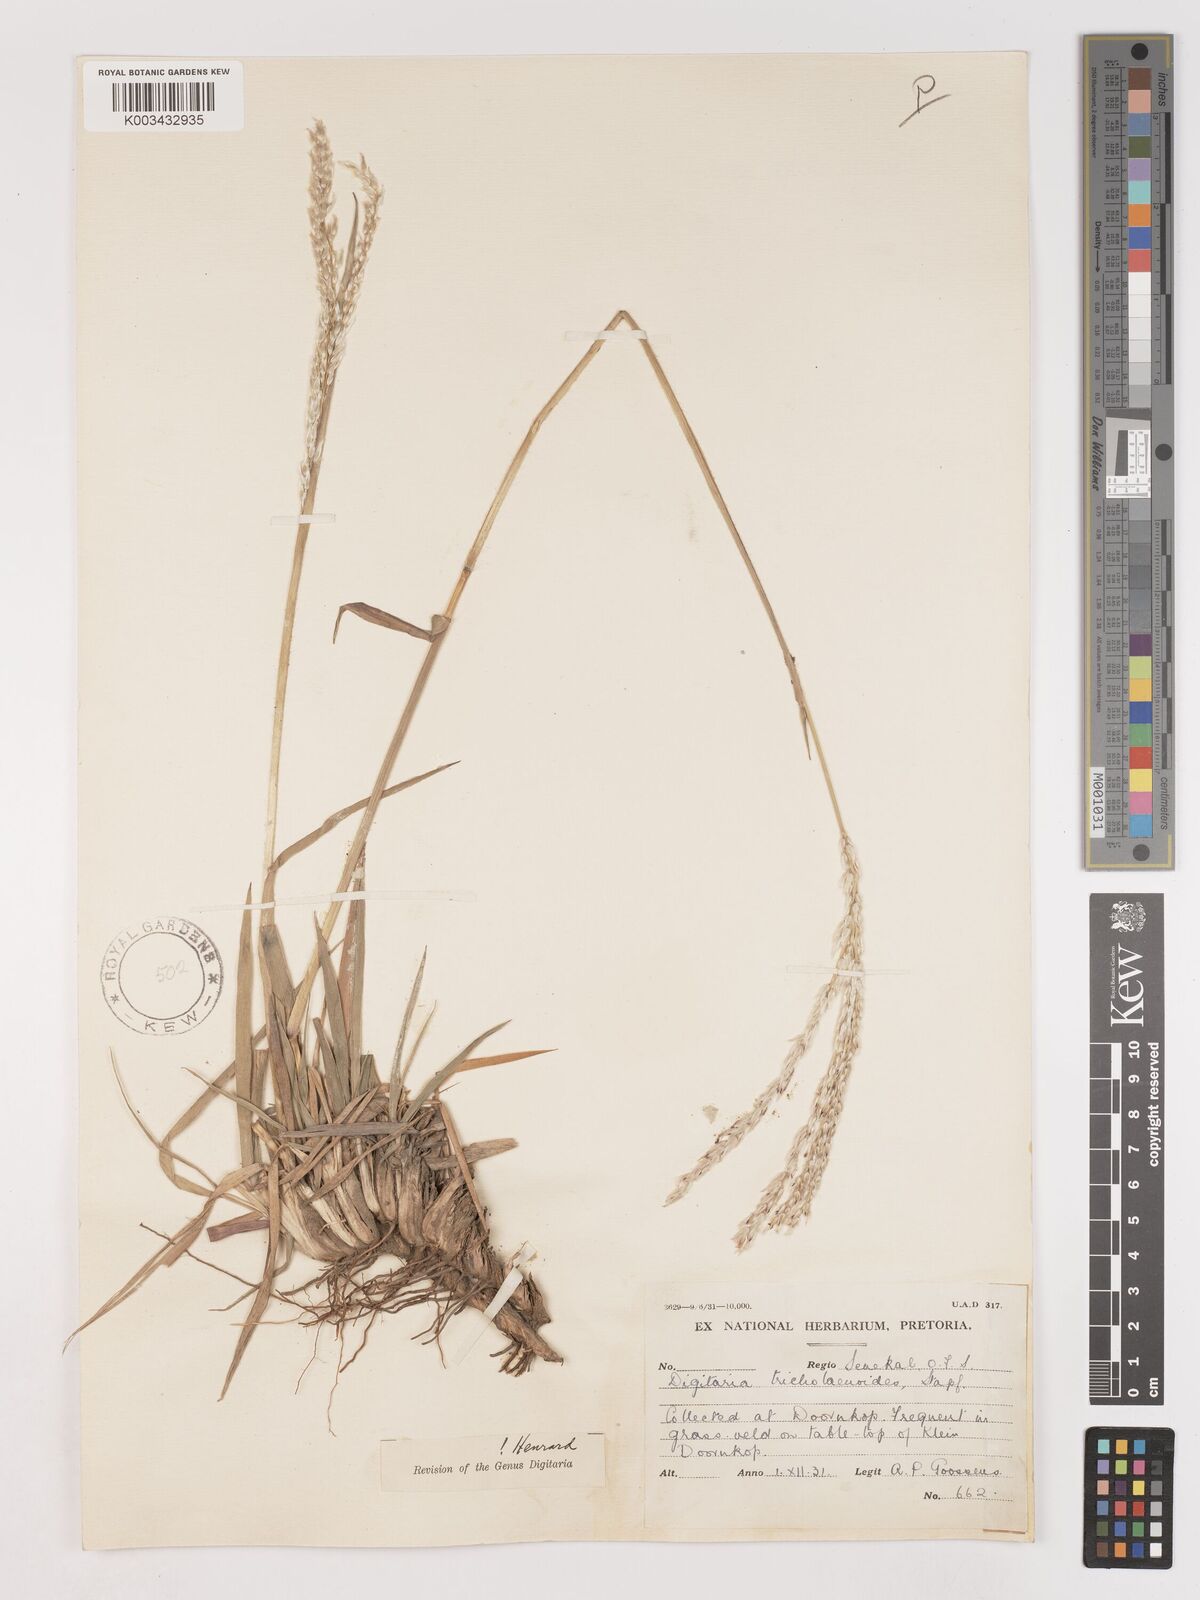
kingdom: Plantae
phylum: Tracheophyta
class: Liliopsida
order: Poales
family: Poaceae
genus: Digitaria
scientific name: Digitaria tricholaenoides
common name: Purple finger grass
